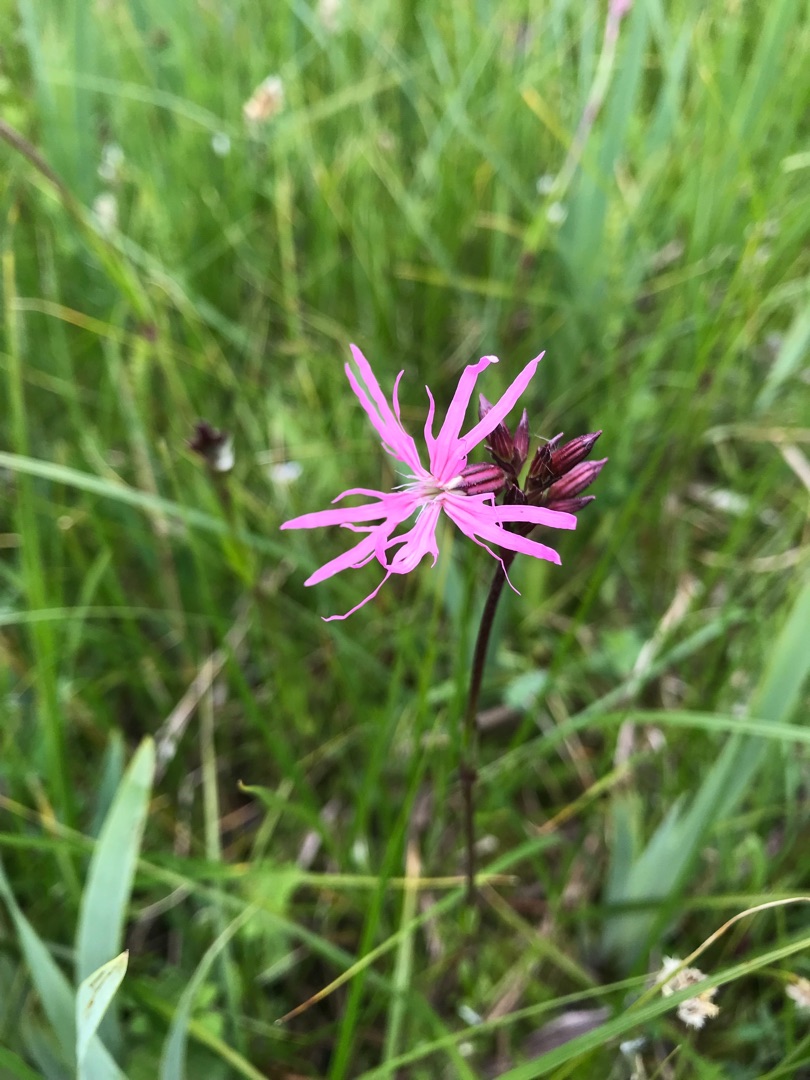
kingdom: Plantae
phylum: Tracheophyta
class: Magnoliopsida
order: Caryophyllales
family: Caryophyllaceae
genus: Silene
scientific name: Silene flos-cuculi
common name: Trævlekrone
